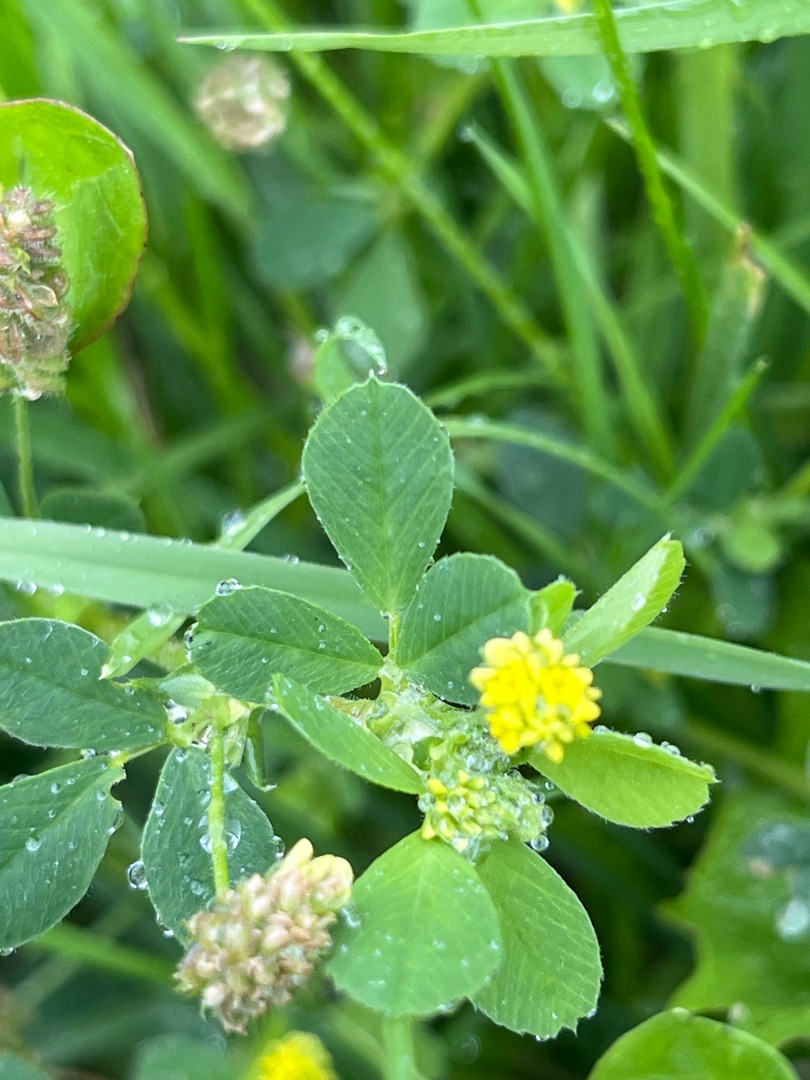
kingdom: Plantae
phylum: Tracheophyta
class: Magnoliopsida
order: Fabales
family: Fabaceae
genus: Medicago
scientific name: Medicago lupulina
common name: Humle-sneglebælg
